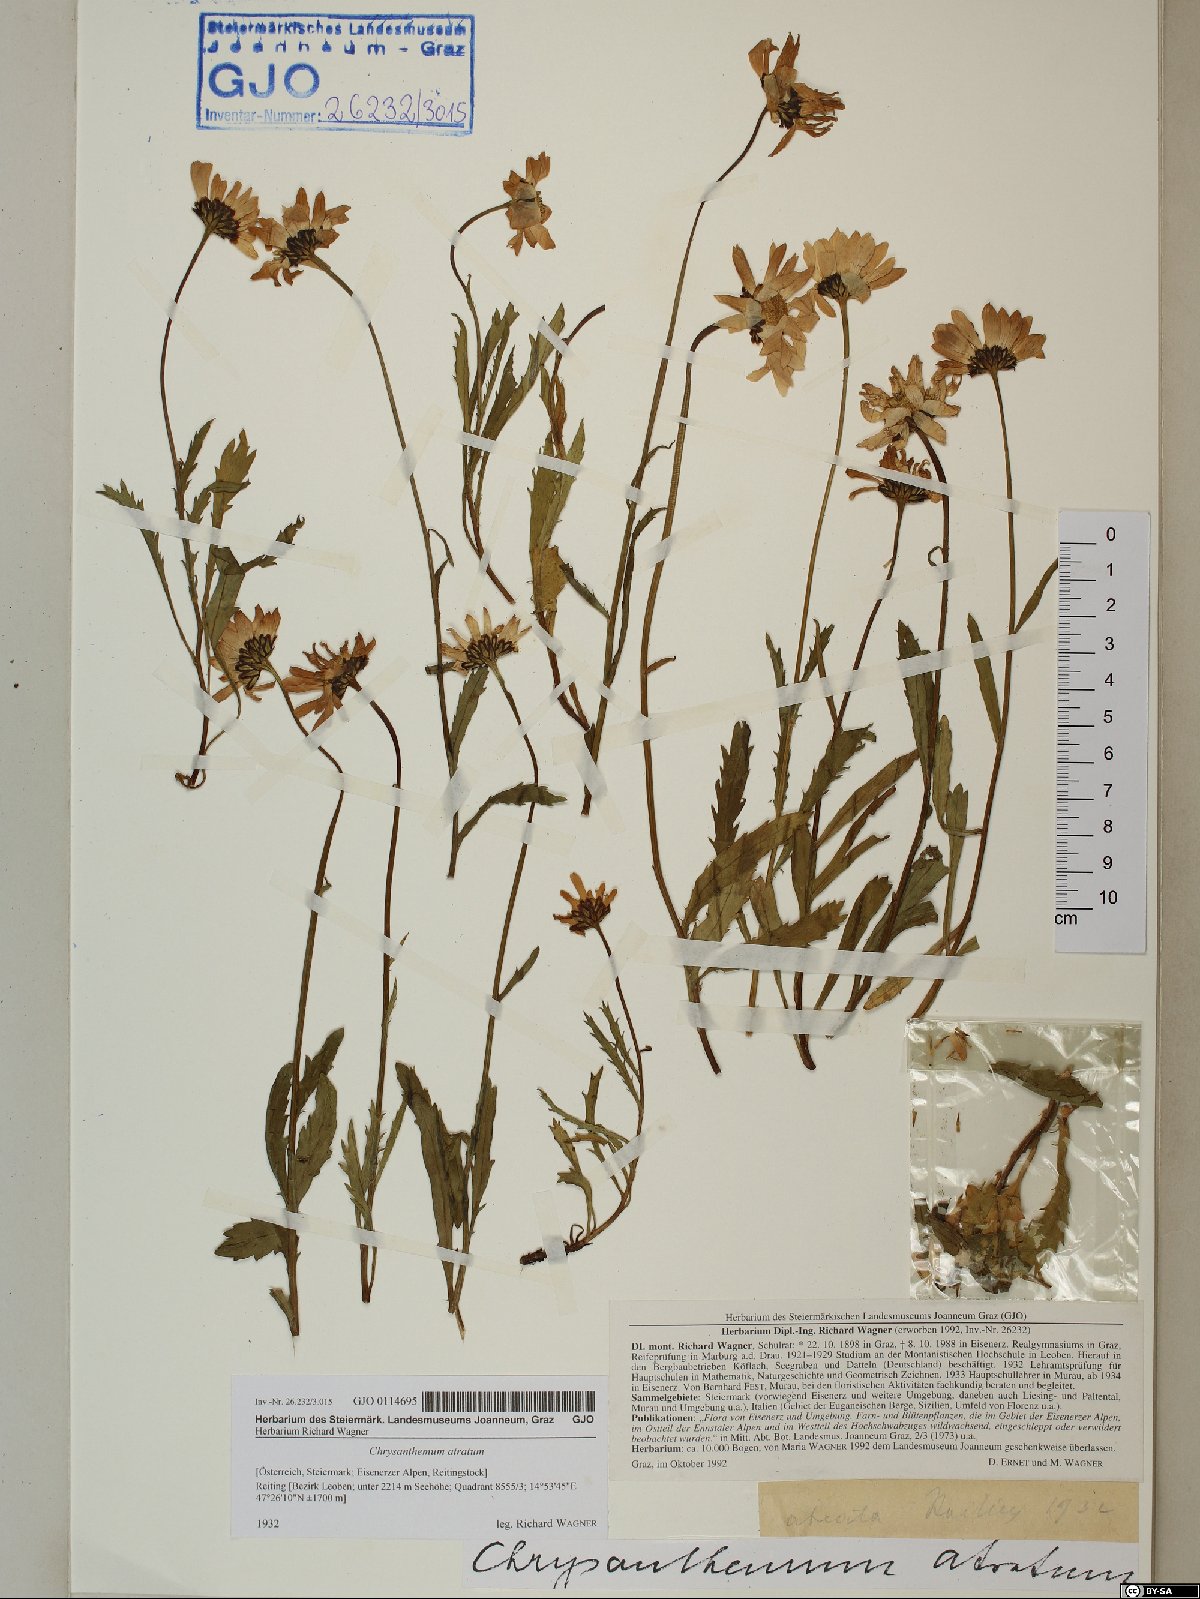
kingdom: Plantae
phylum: Tracheophyta
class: Magnoliopsida
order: Asterales
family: Asteraceae
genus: Leucanthemum
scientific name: Leucanthemum atratum
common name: Saw-leaved moon-daisy
